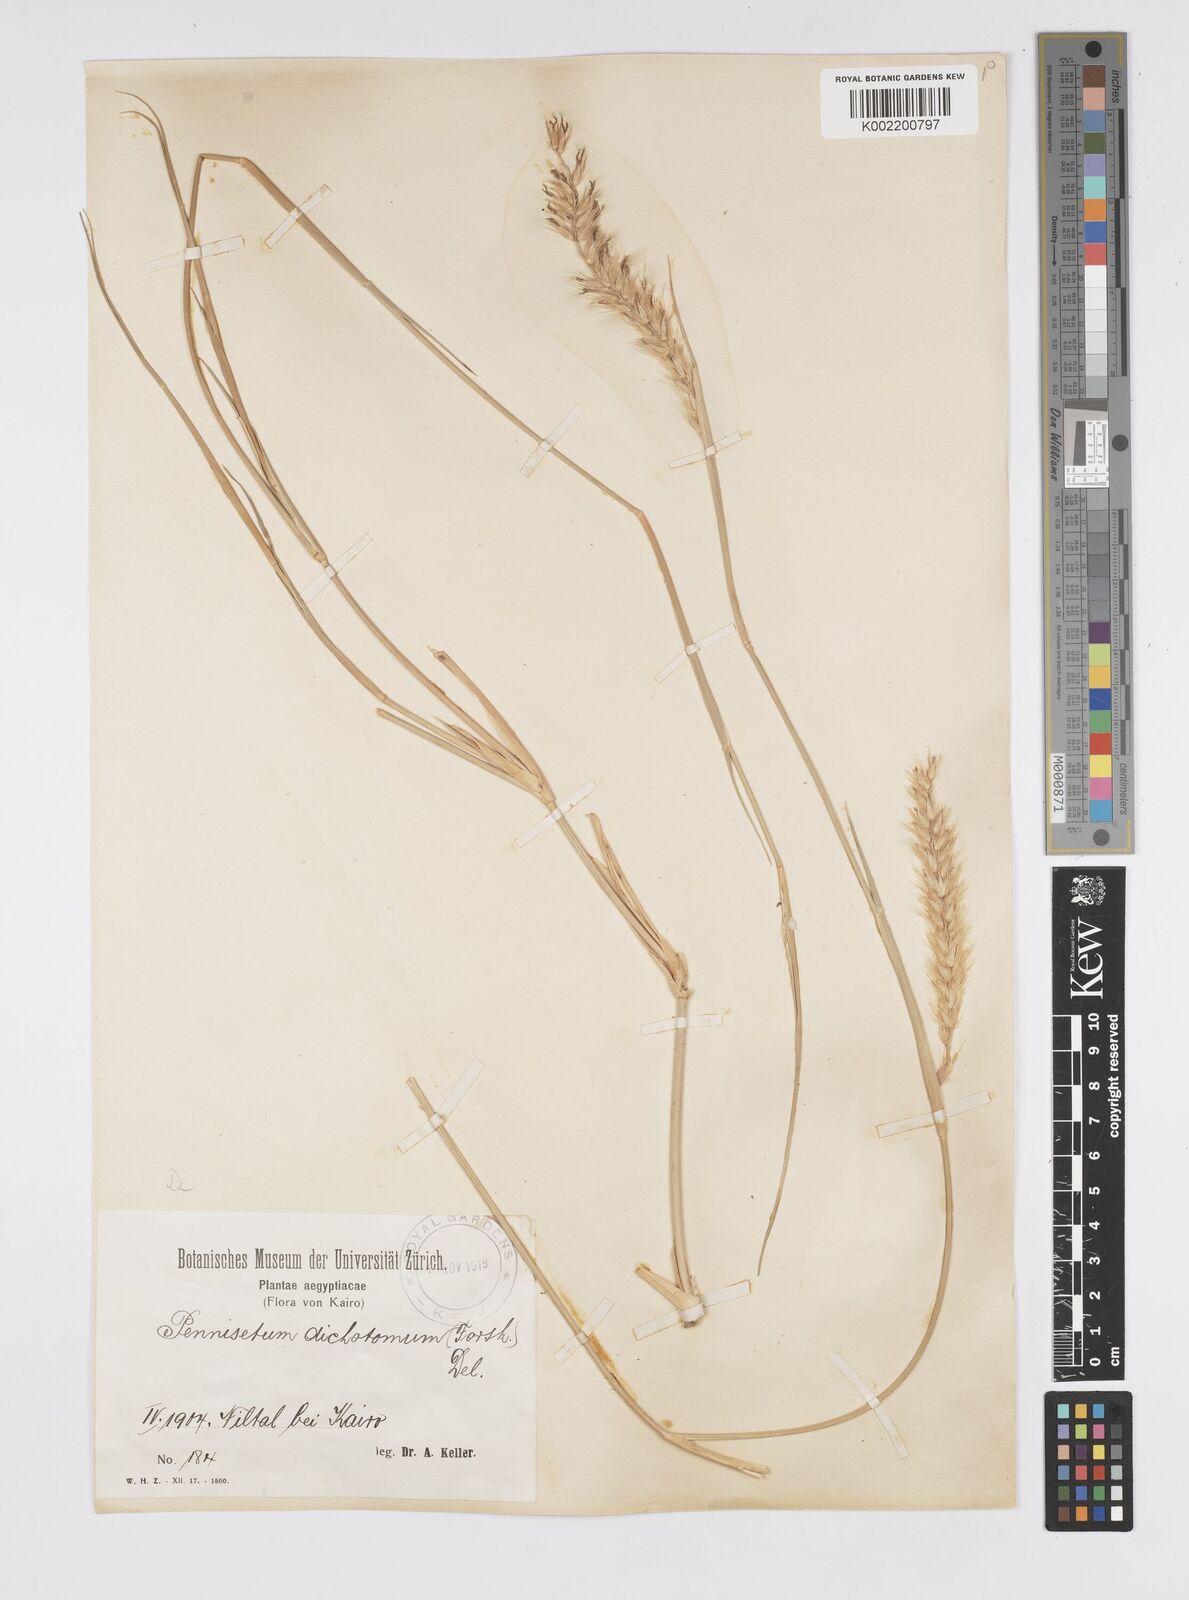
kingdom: Plantae
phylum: Tracheophyta
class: Liliopsida
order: Poales
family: Poaceae
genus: Cenchrus
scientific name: Cenchrus divisus
